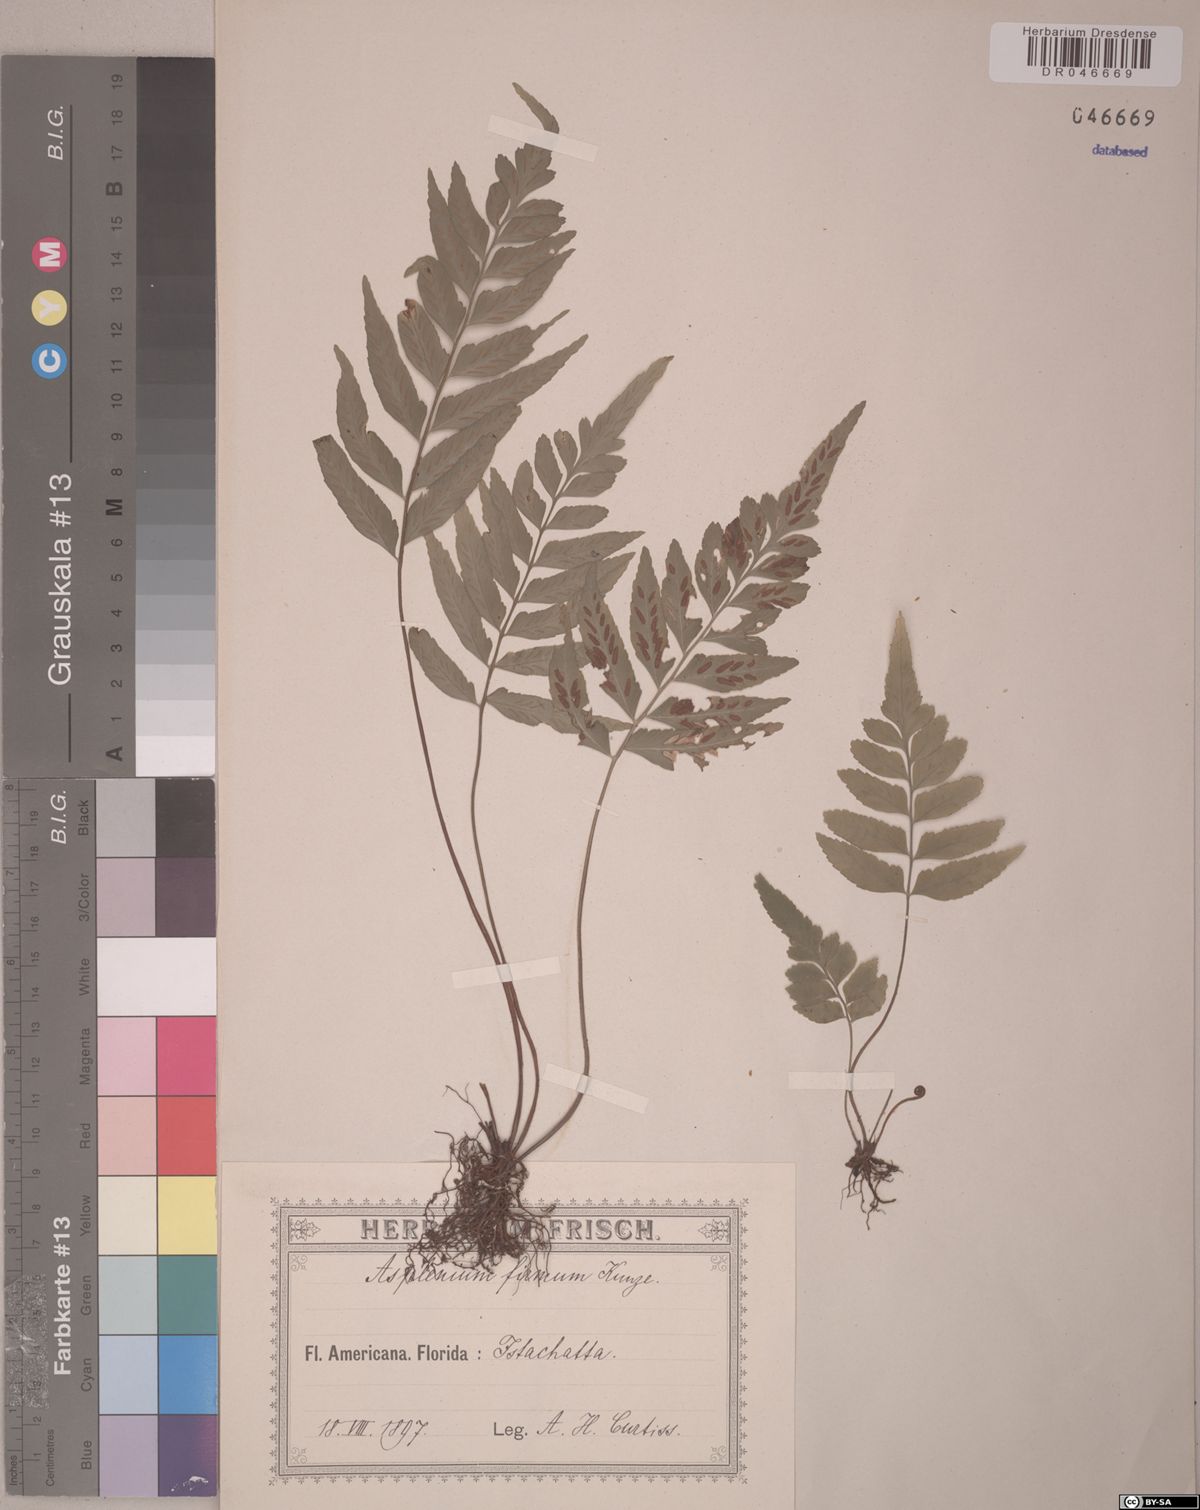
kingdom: Plantae
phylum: Tracheophyta
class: Polypodiopsida
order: Polypodiales
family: Aspleniaceae
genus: Asplenium
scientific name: Asplenium abscissum
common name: Cutleaf spleenwort
